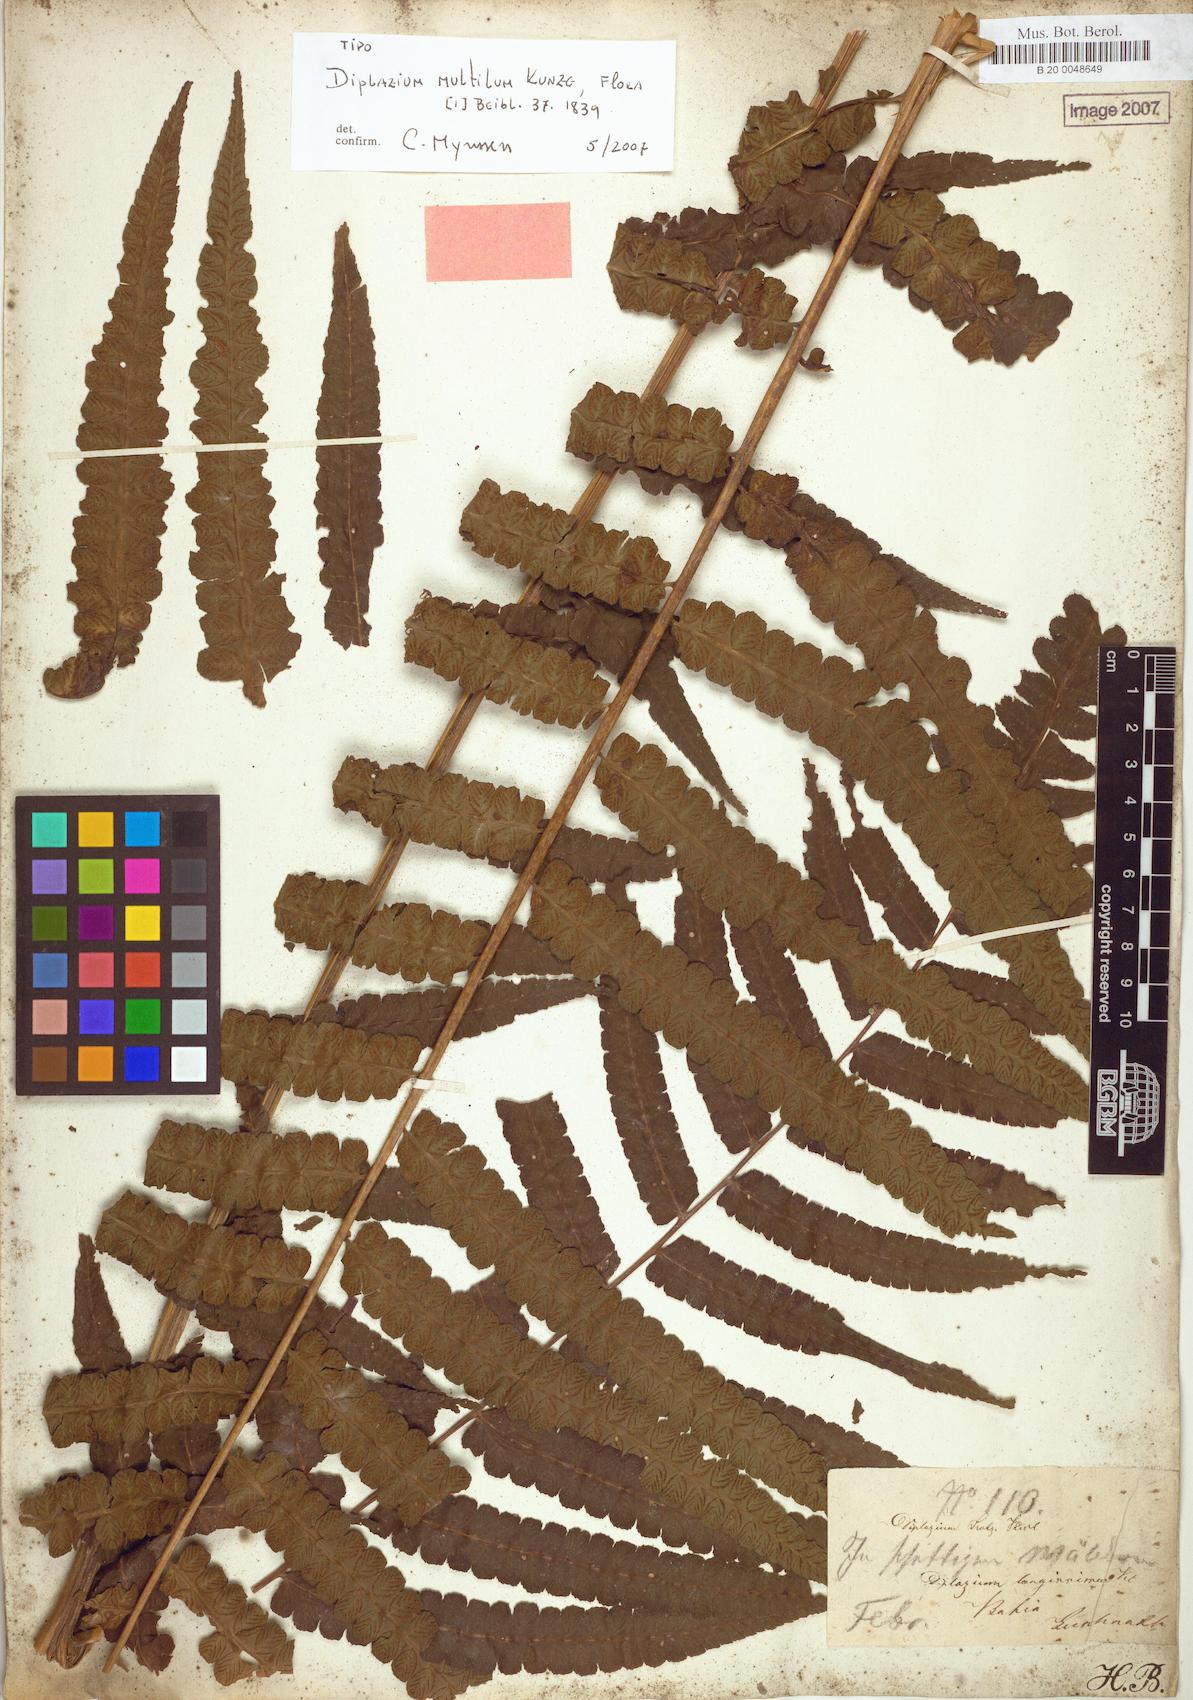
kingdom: Plantae
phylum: Tracheophyta
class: Polypodiopsida
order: Polypodiales
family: Athyriaceae
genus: Diplazium
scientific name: Diplazium mutilum
